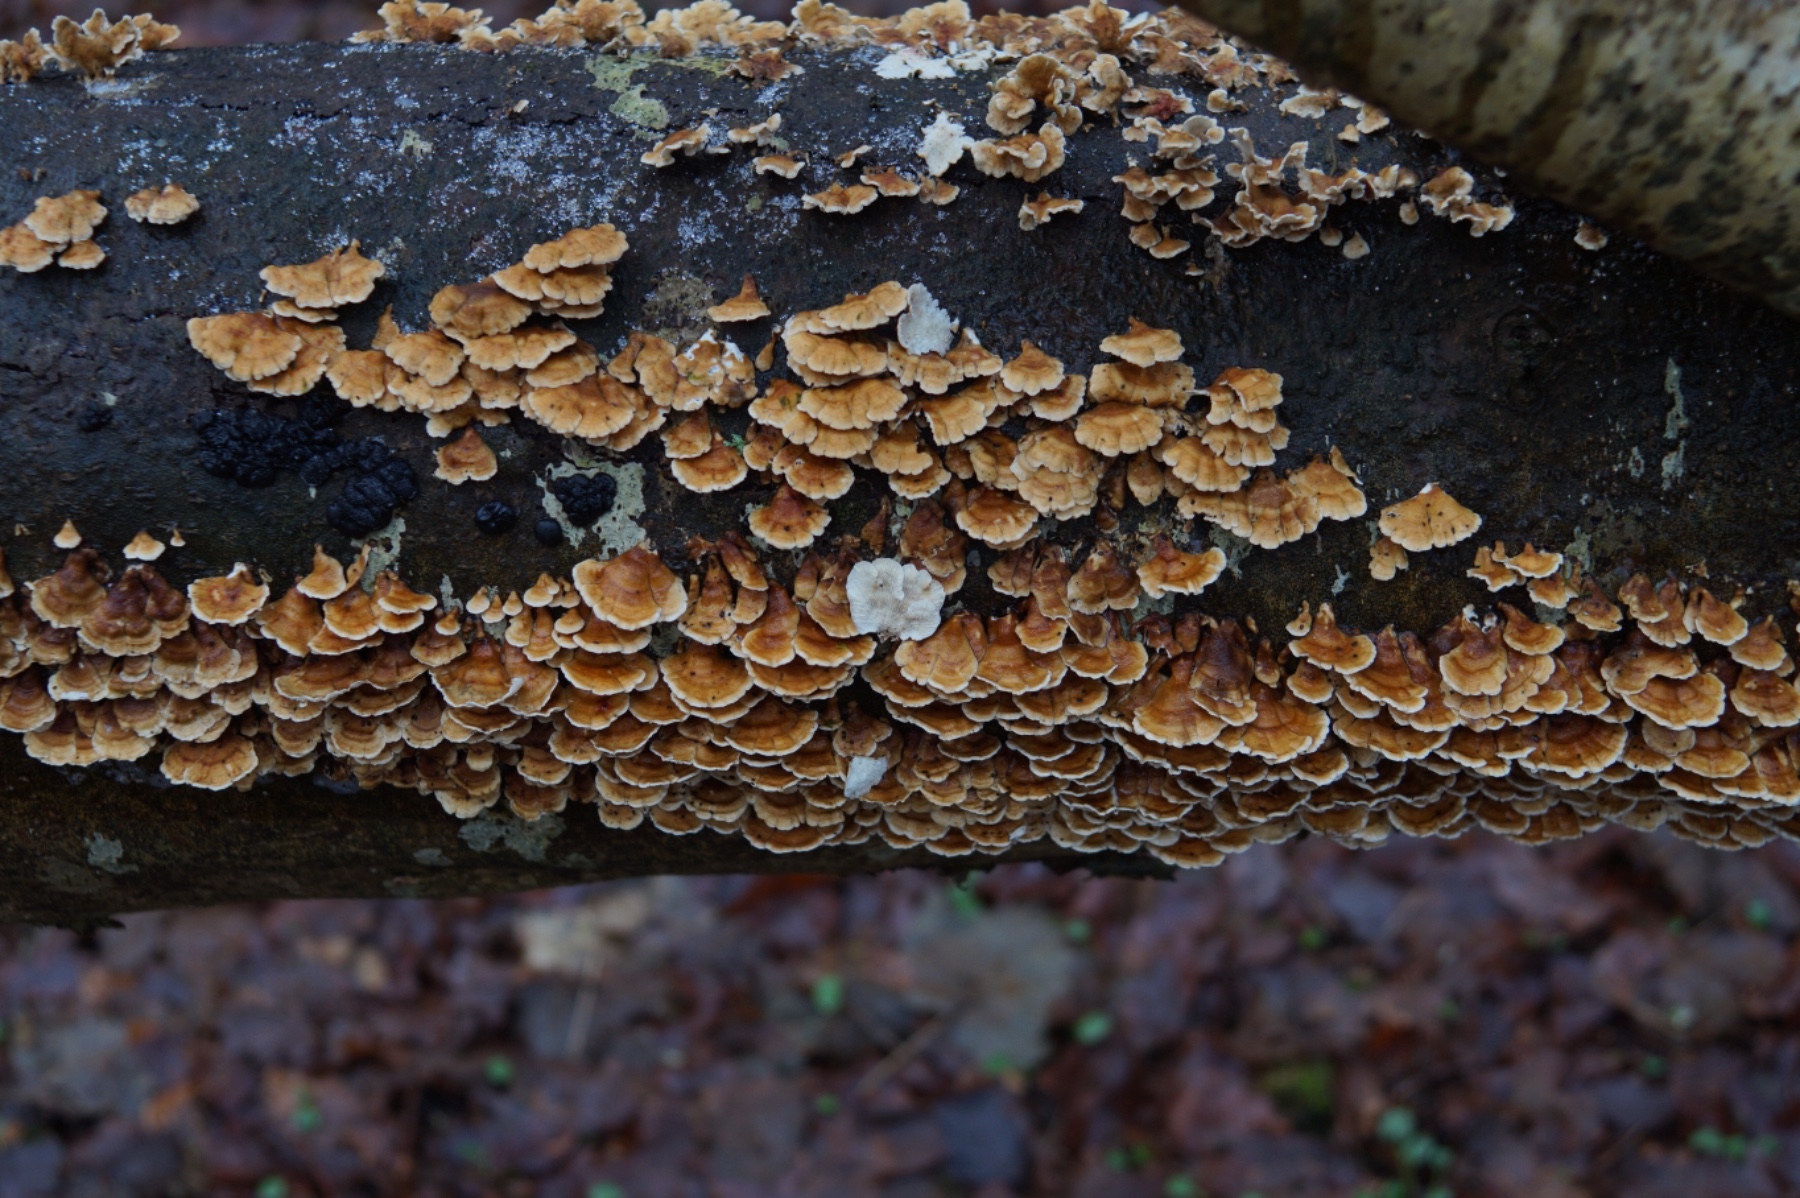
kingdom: Fungi
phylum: Basidiomycota
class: Agaricomycetes
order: Amylocorticiales
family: Amylocorticiaceae
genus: Plicaturopsis
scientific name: Plicaturopsis crispa
